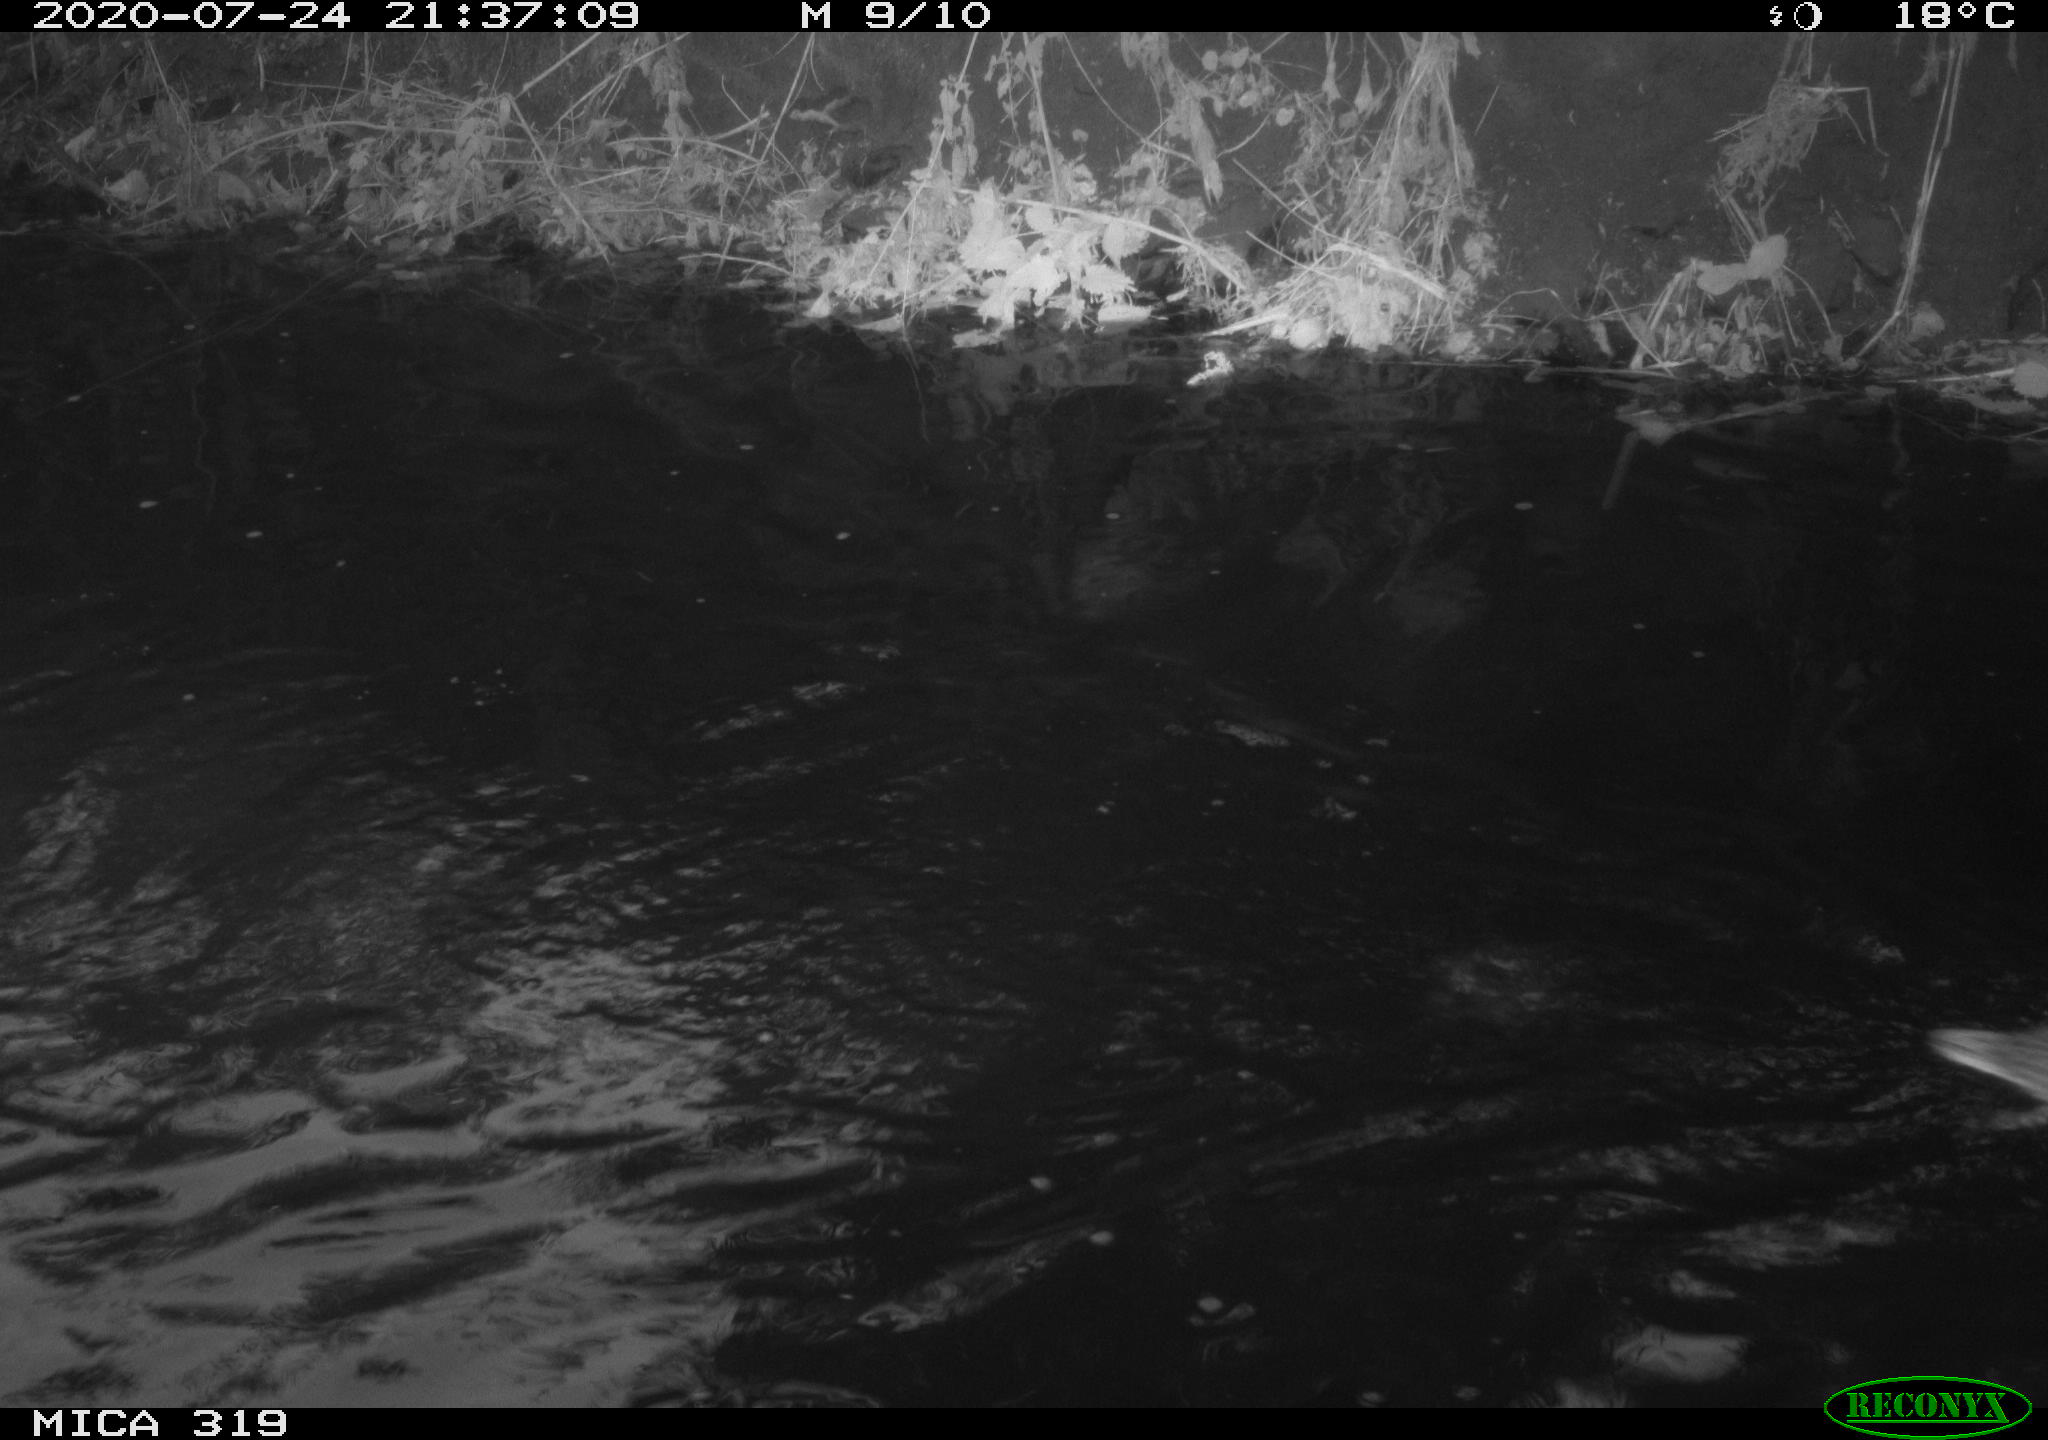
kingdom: Animalia
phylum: Chordata
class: Aves
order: Anseriformes
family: Anatidae
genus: Anas
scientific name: Anas platyrhynchos
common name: Mallard
